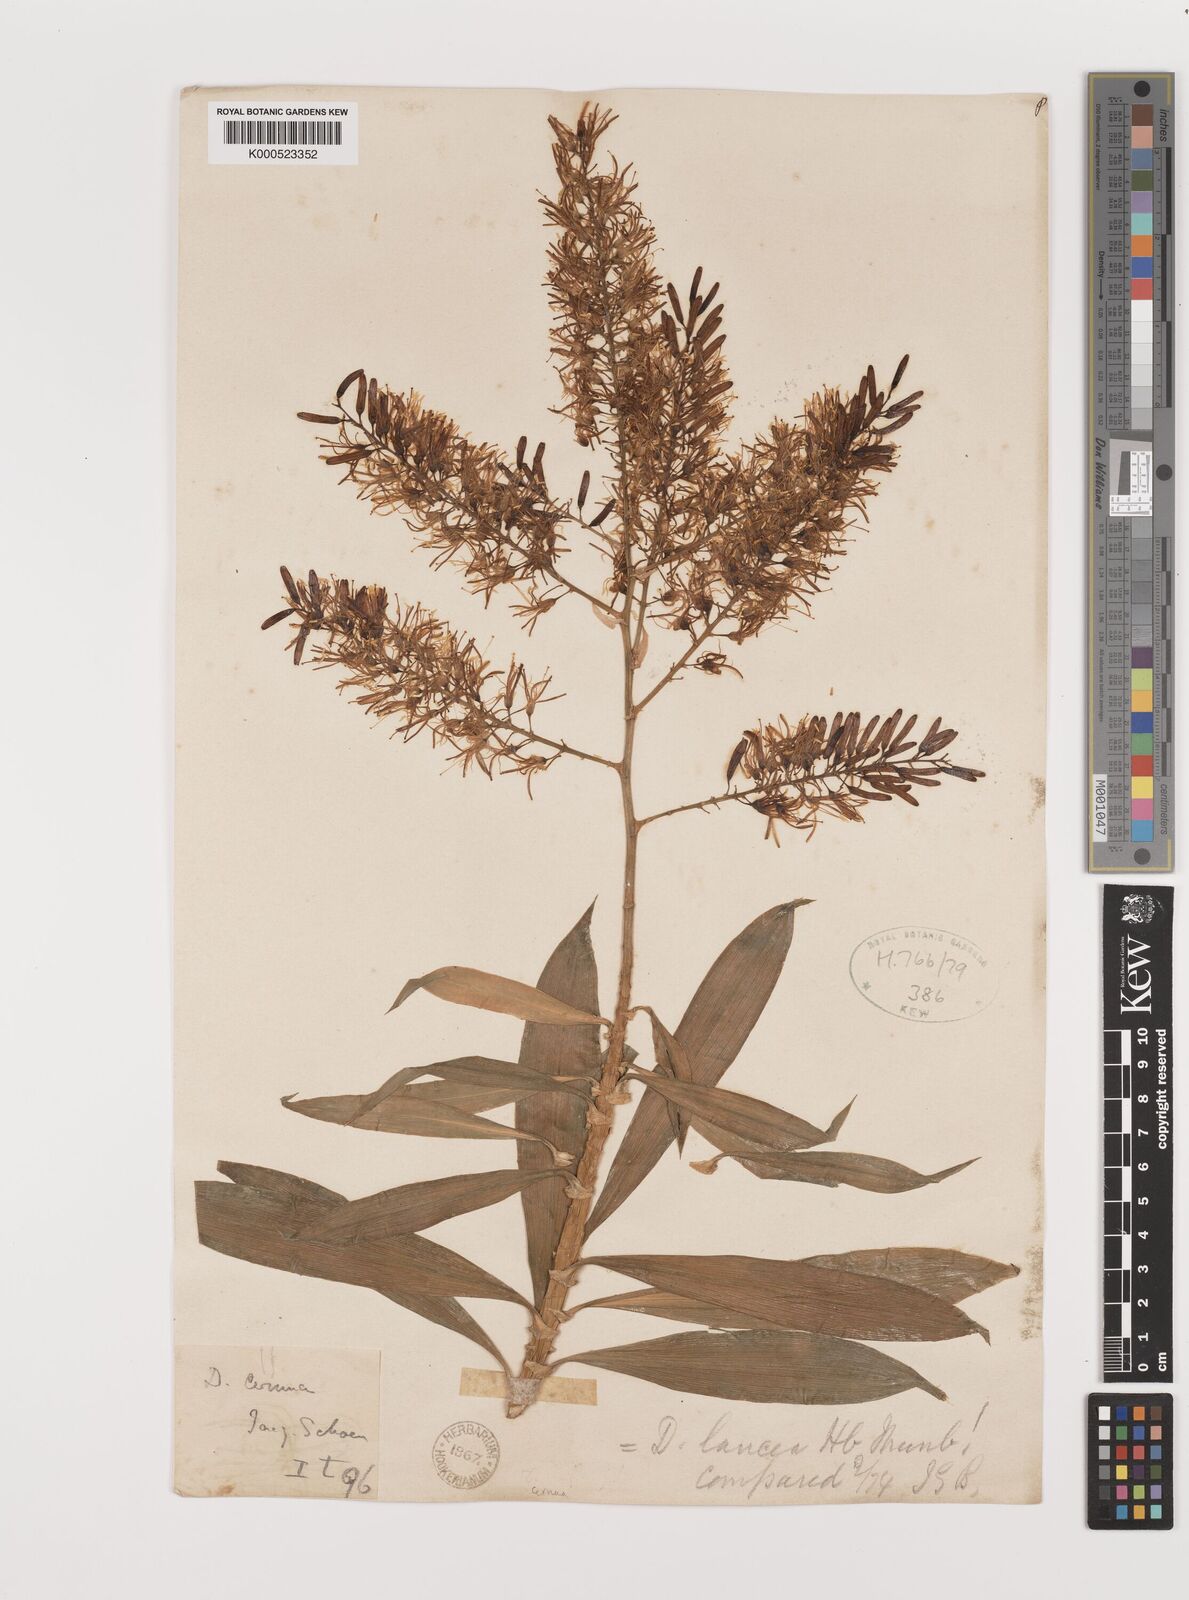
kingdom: Plantae
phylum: Tracheophyta
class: Liliopsida
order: Asparagales
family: Asparagaceae
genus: Dracaena
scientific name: Dracaena reflexa
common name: Song-of-india
